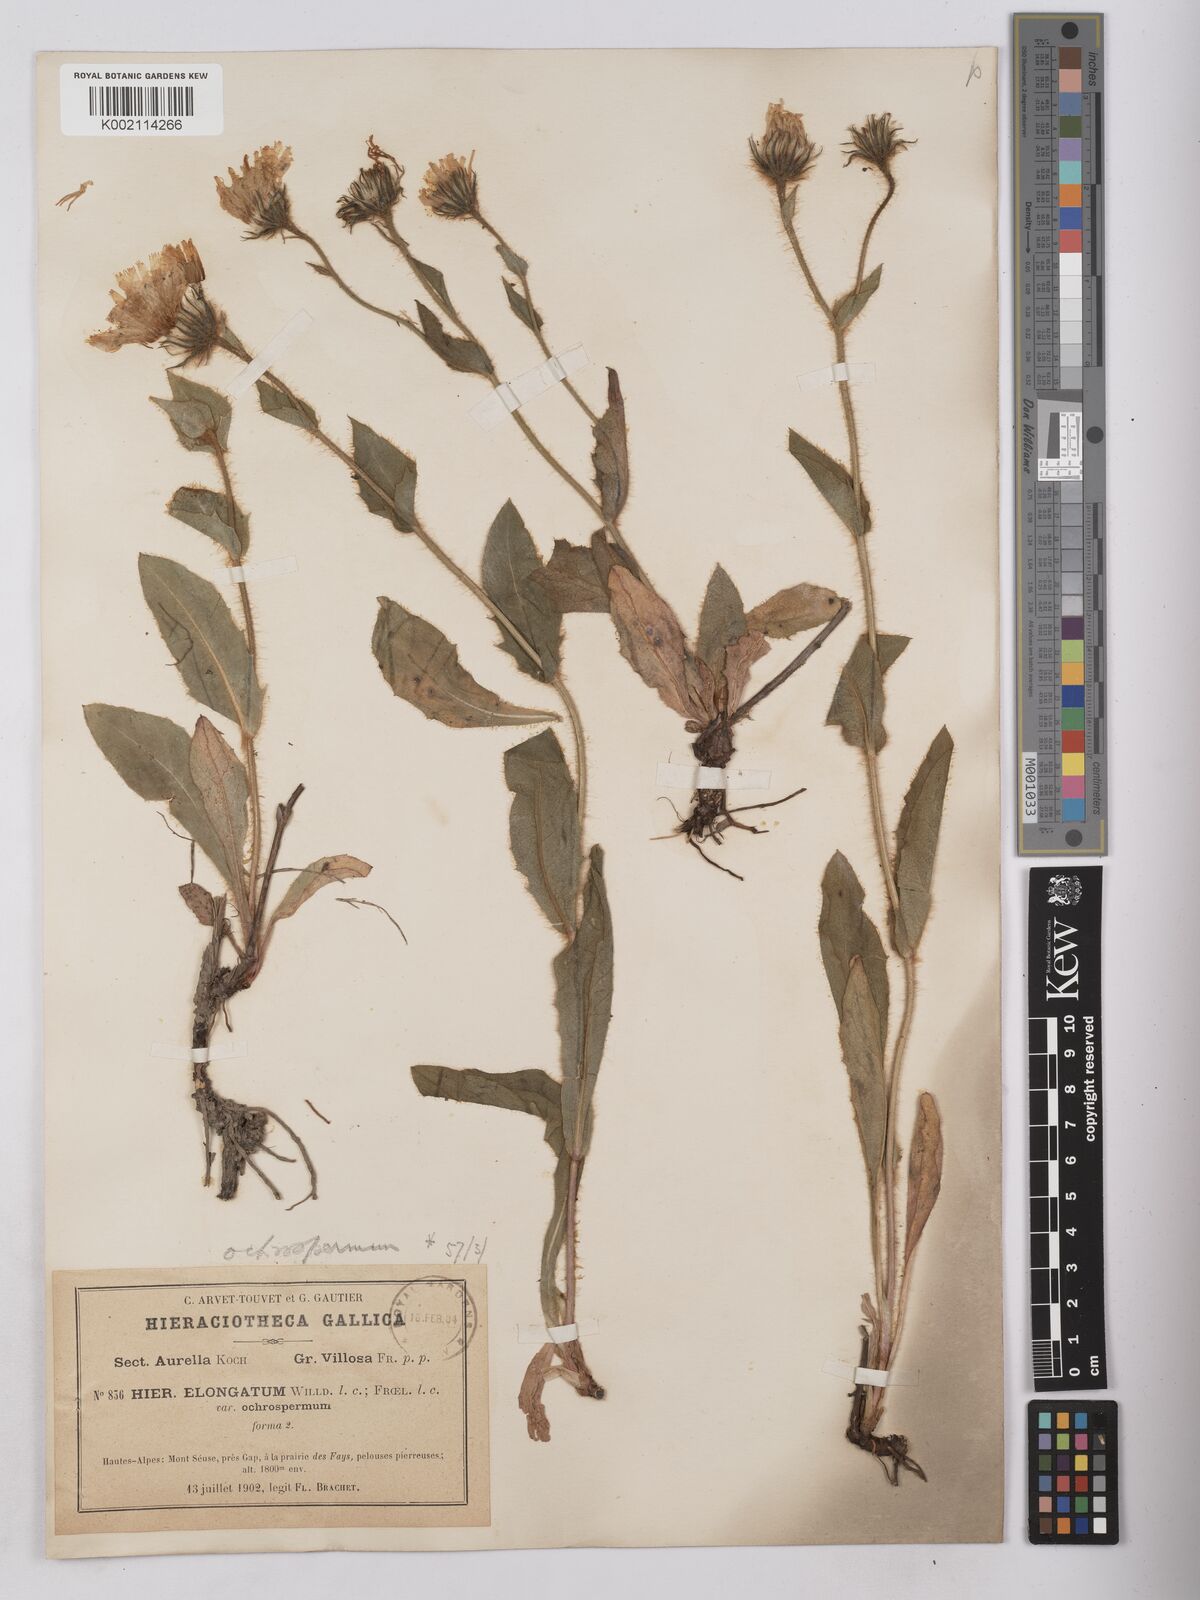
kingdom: Plantae
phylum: Tracheophyta
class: Magnoliopsida
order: Asterales
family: Asteraceae
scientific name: Asteraceae
